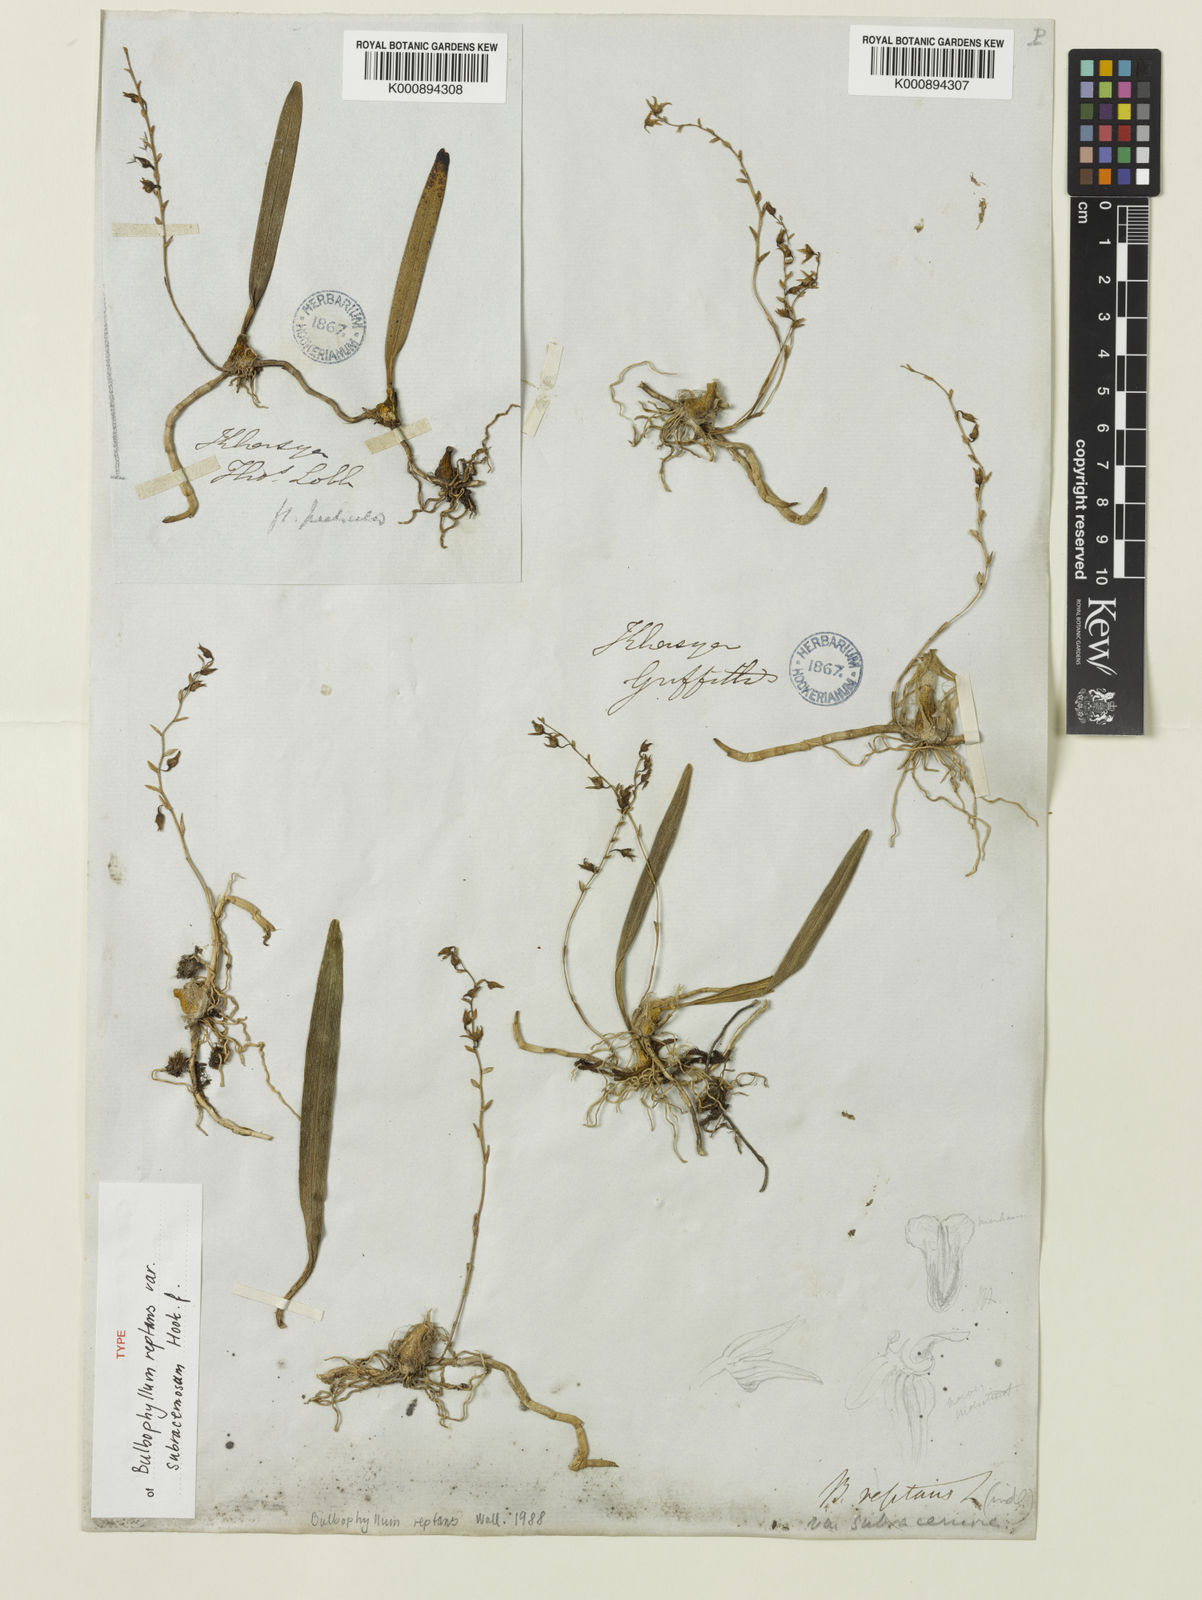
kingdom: Plantae
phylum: Tracheophyta
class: Liliopsida
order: Asparagales
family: Orchidaceae
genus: Bulbophyllum
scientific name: Bulbophyllum reptans
